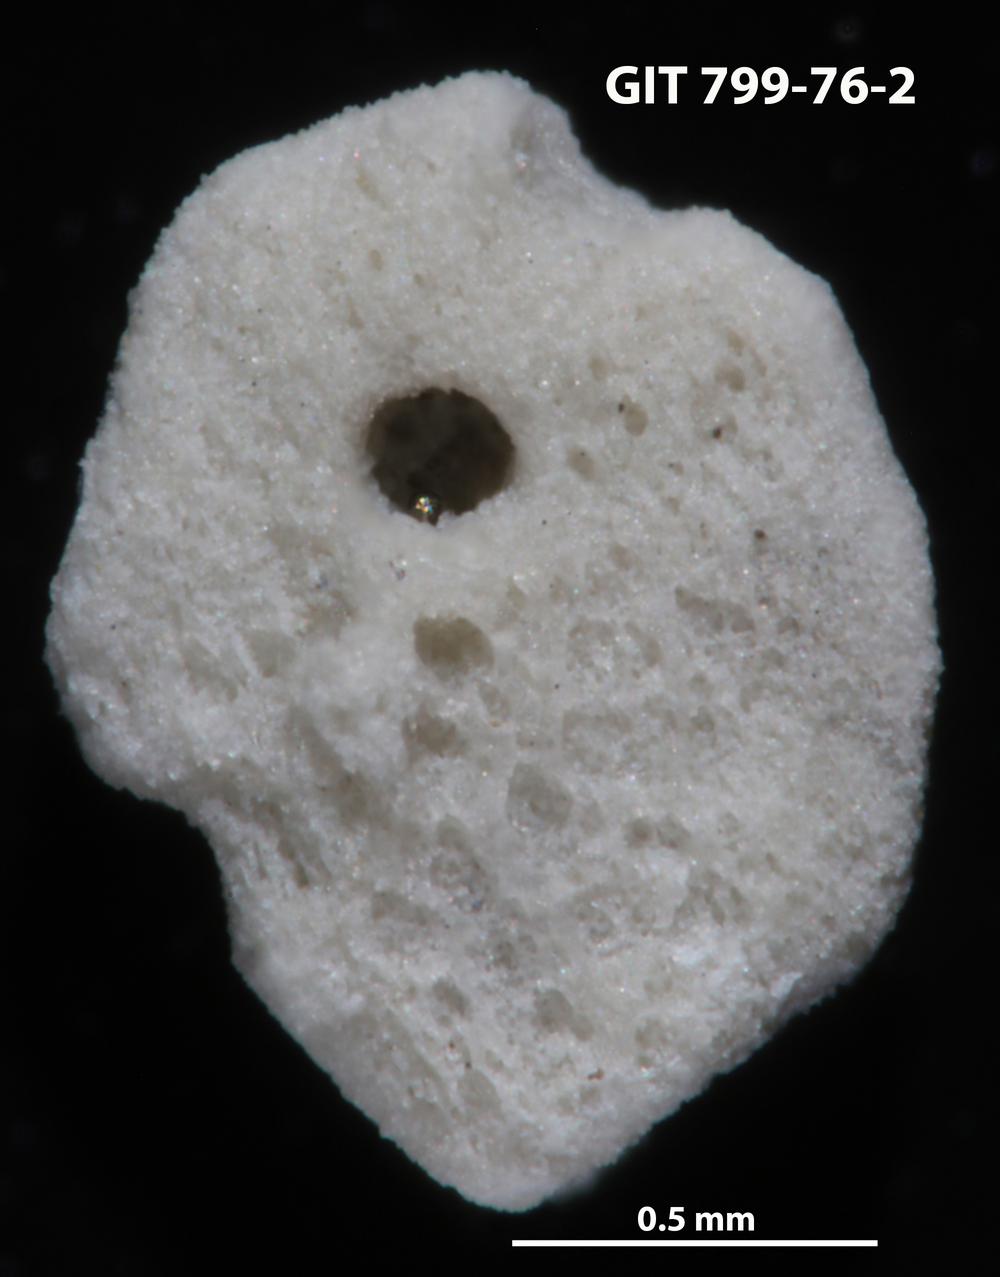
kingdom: Animalia
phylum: Echinodermata
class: Echinoidea
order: Bothriocidaroida
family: Bothriocidaridae
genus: Neobothriocidaris
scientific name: Neobothriocidaris
